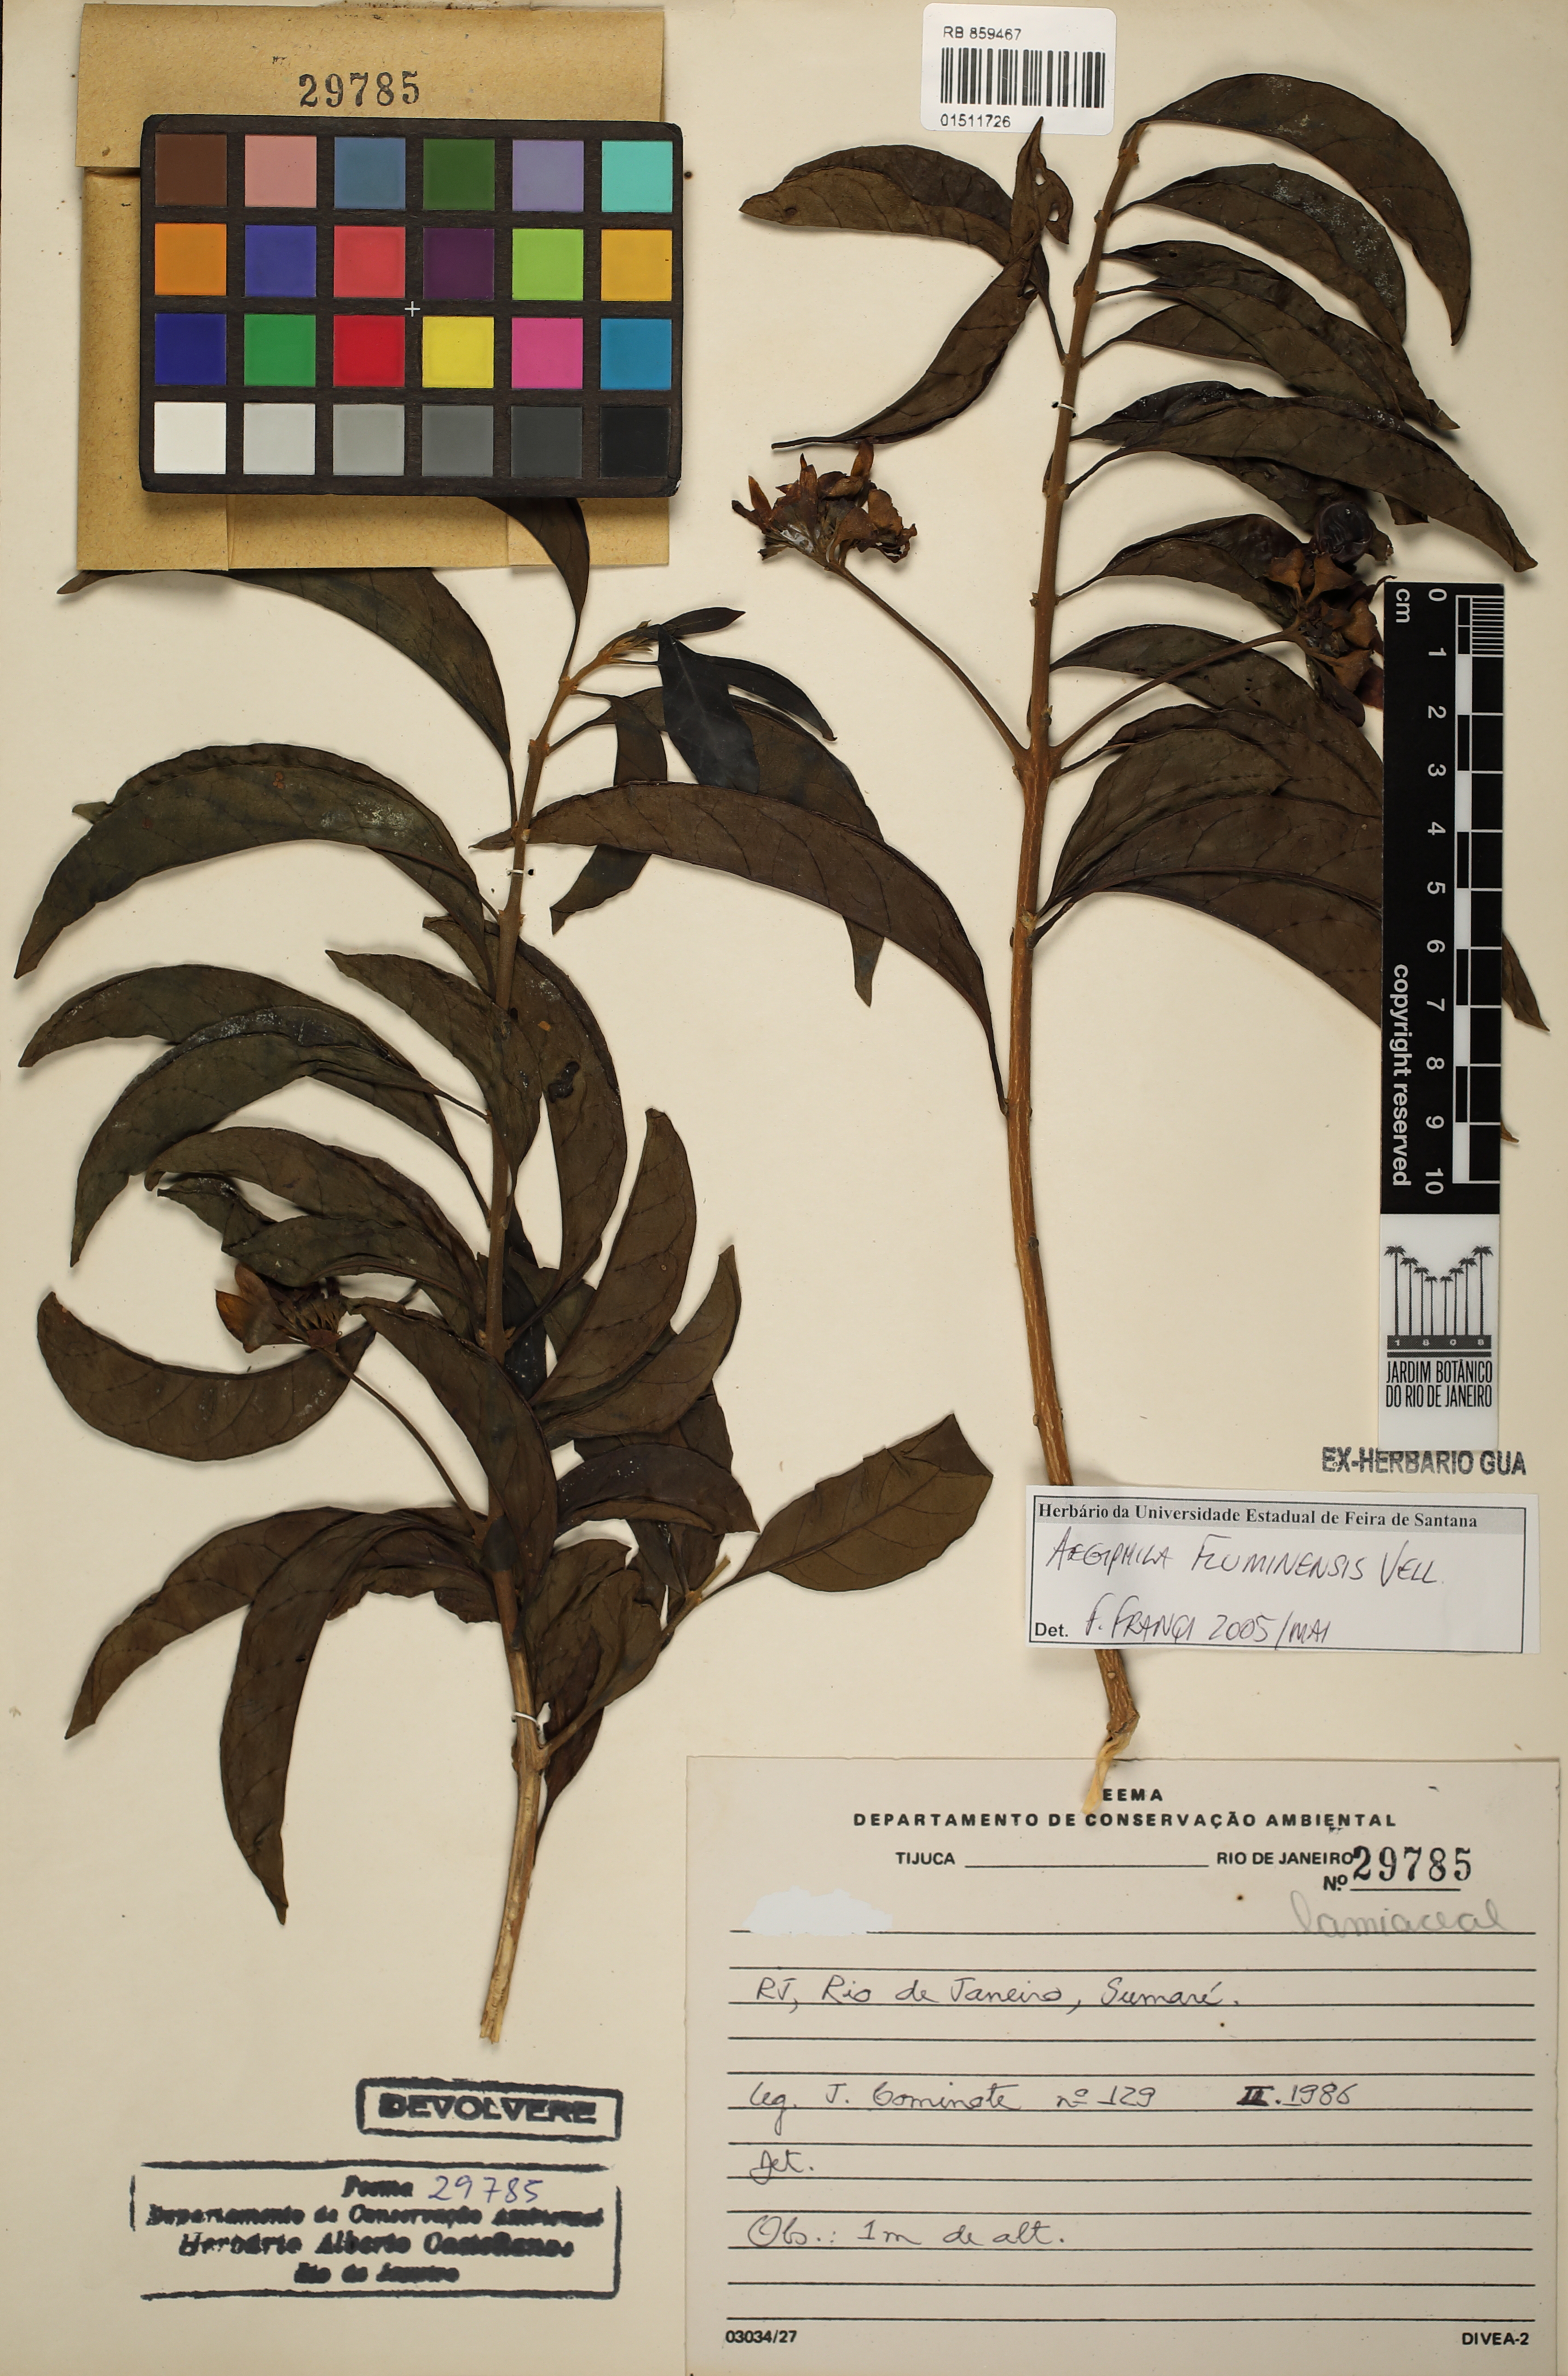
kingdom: Plantae
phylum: Tracheophyta
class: Magnoliopsida
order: Lamiales
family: Lamiaceae
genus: Aegiphila
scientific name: Aegiphila fluminensis
